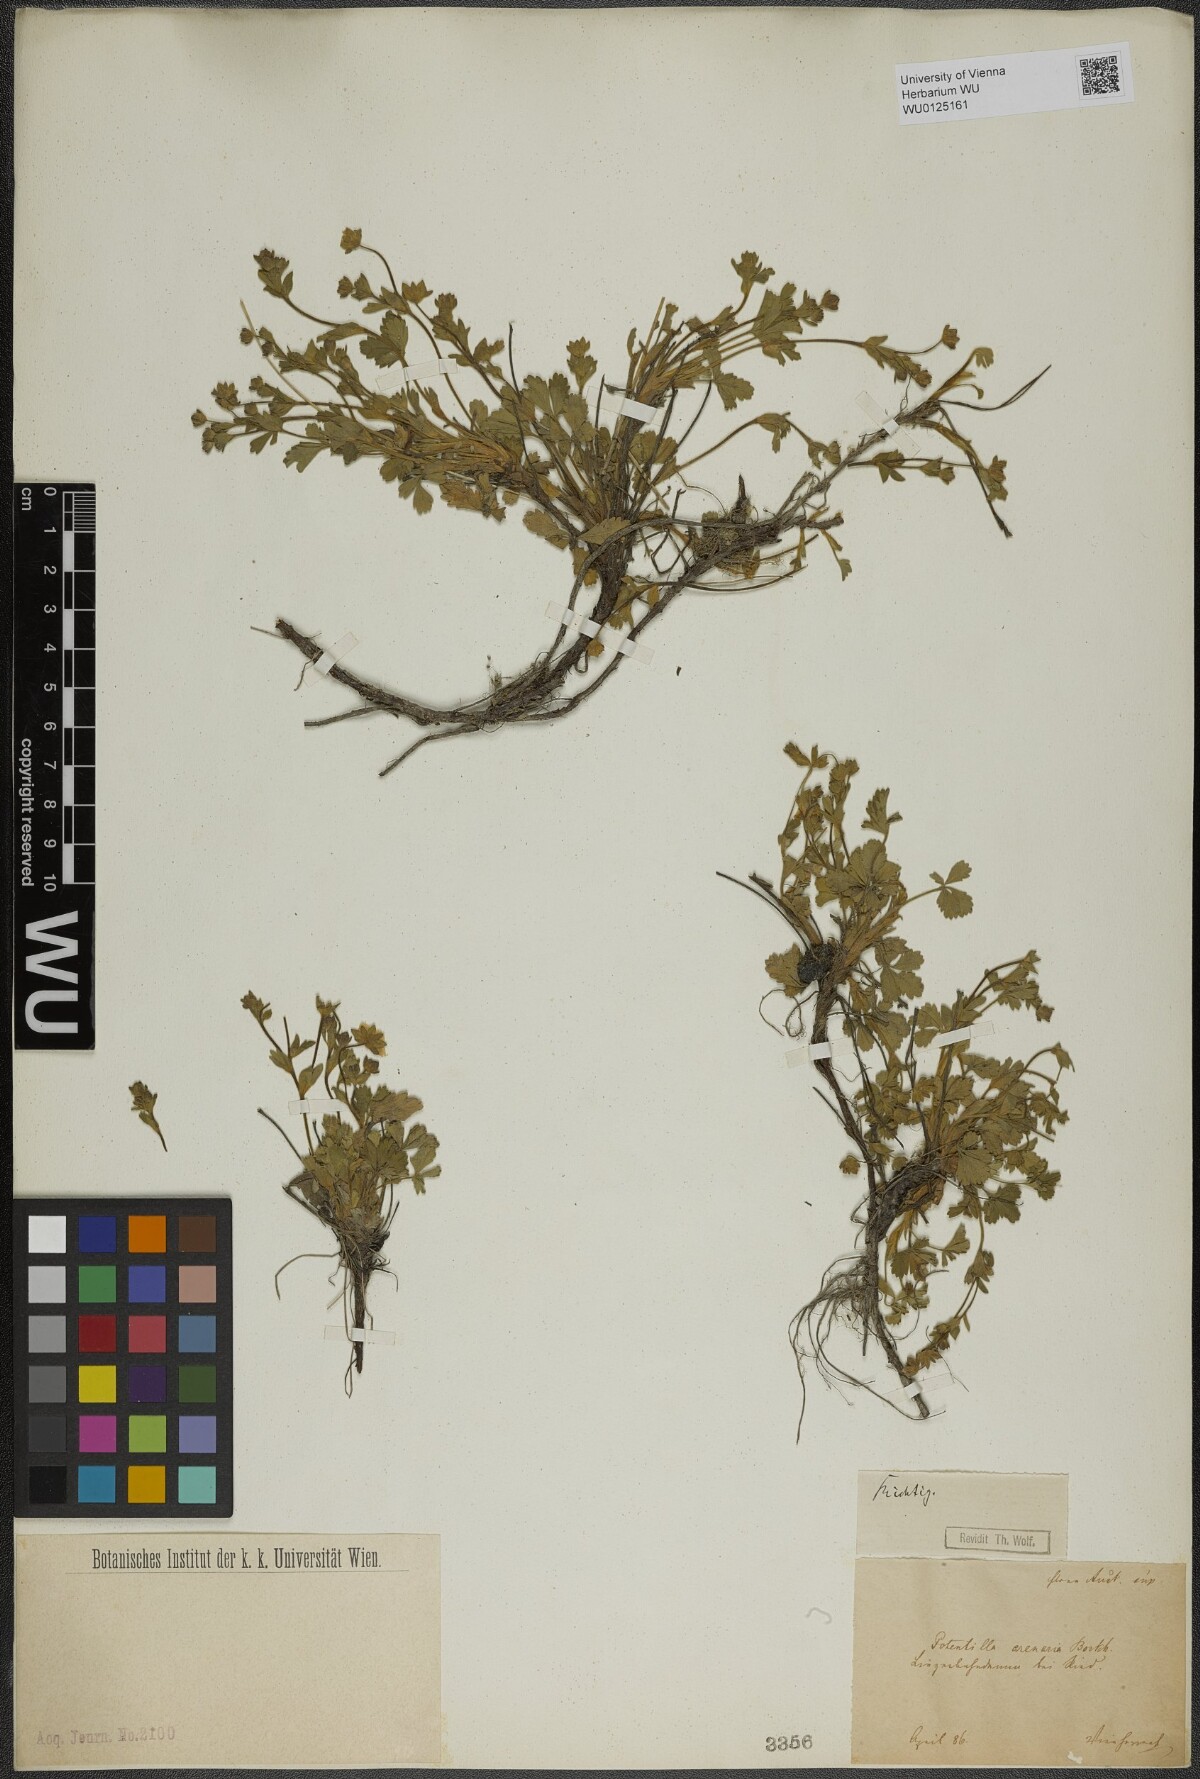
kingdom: Plantae
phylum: Tracheophyta
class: Magnoliopsida
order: Rosales
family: Rosaceae
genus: Potentilla
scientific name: Potentilla cinerea
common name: Ashy cinquefoil
